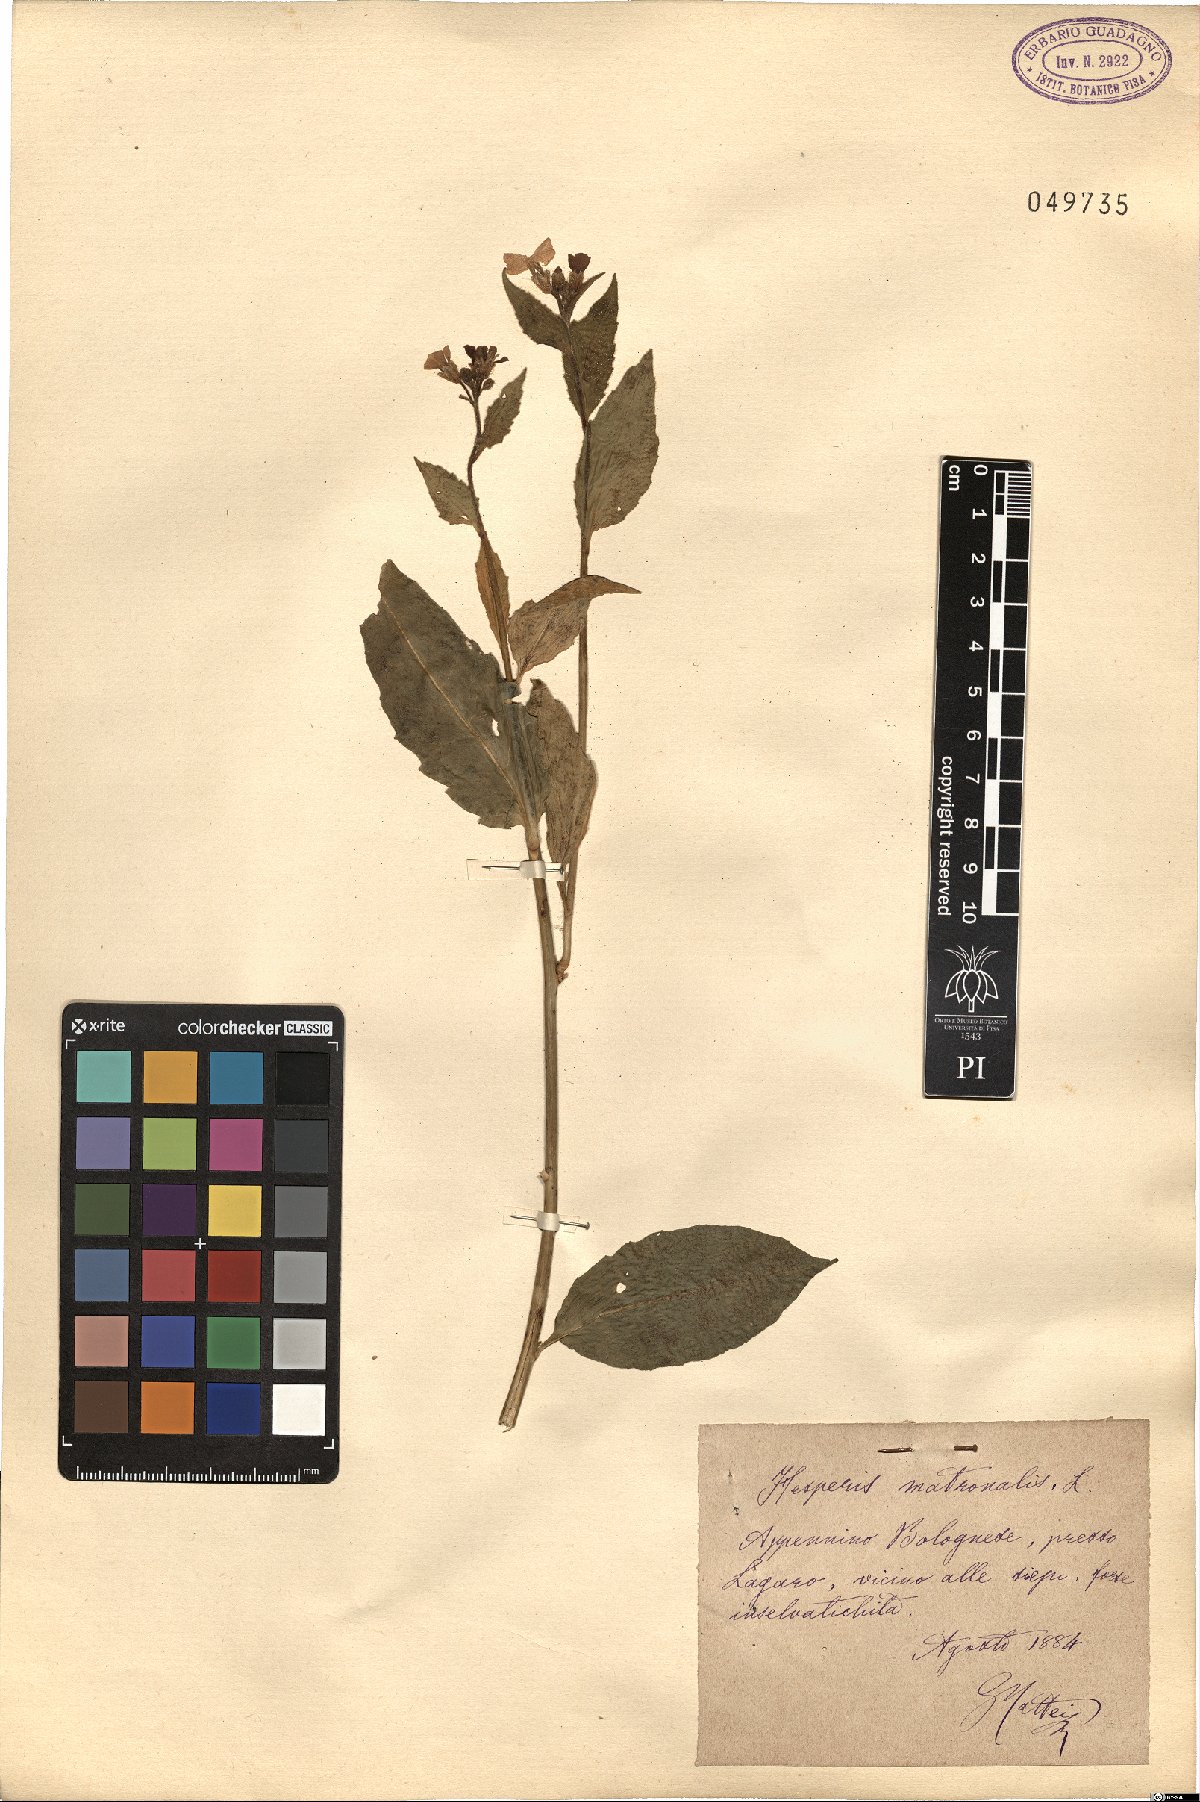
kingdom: Plantae
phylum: Tracheophyta
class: Magnoliopsida
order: Brassicales
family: Brassicaceae
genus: Hesperis
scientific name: Hesperis matronalis
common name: Dame's-violet
